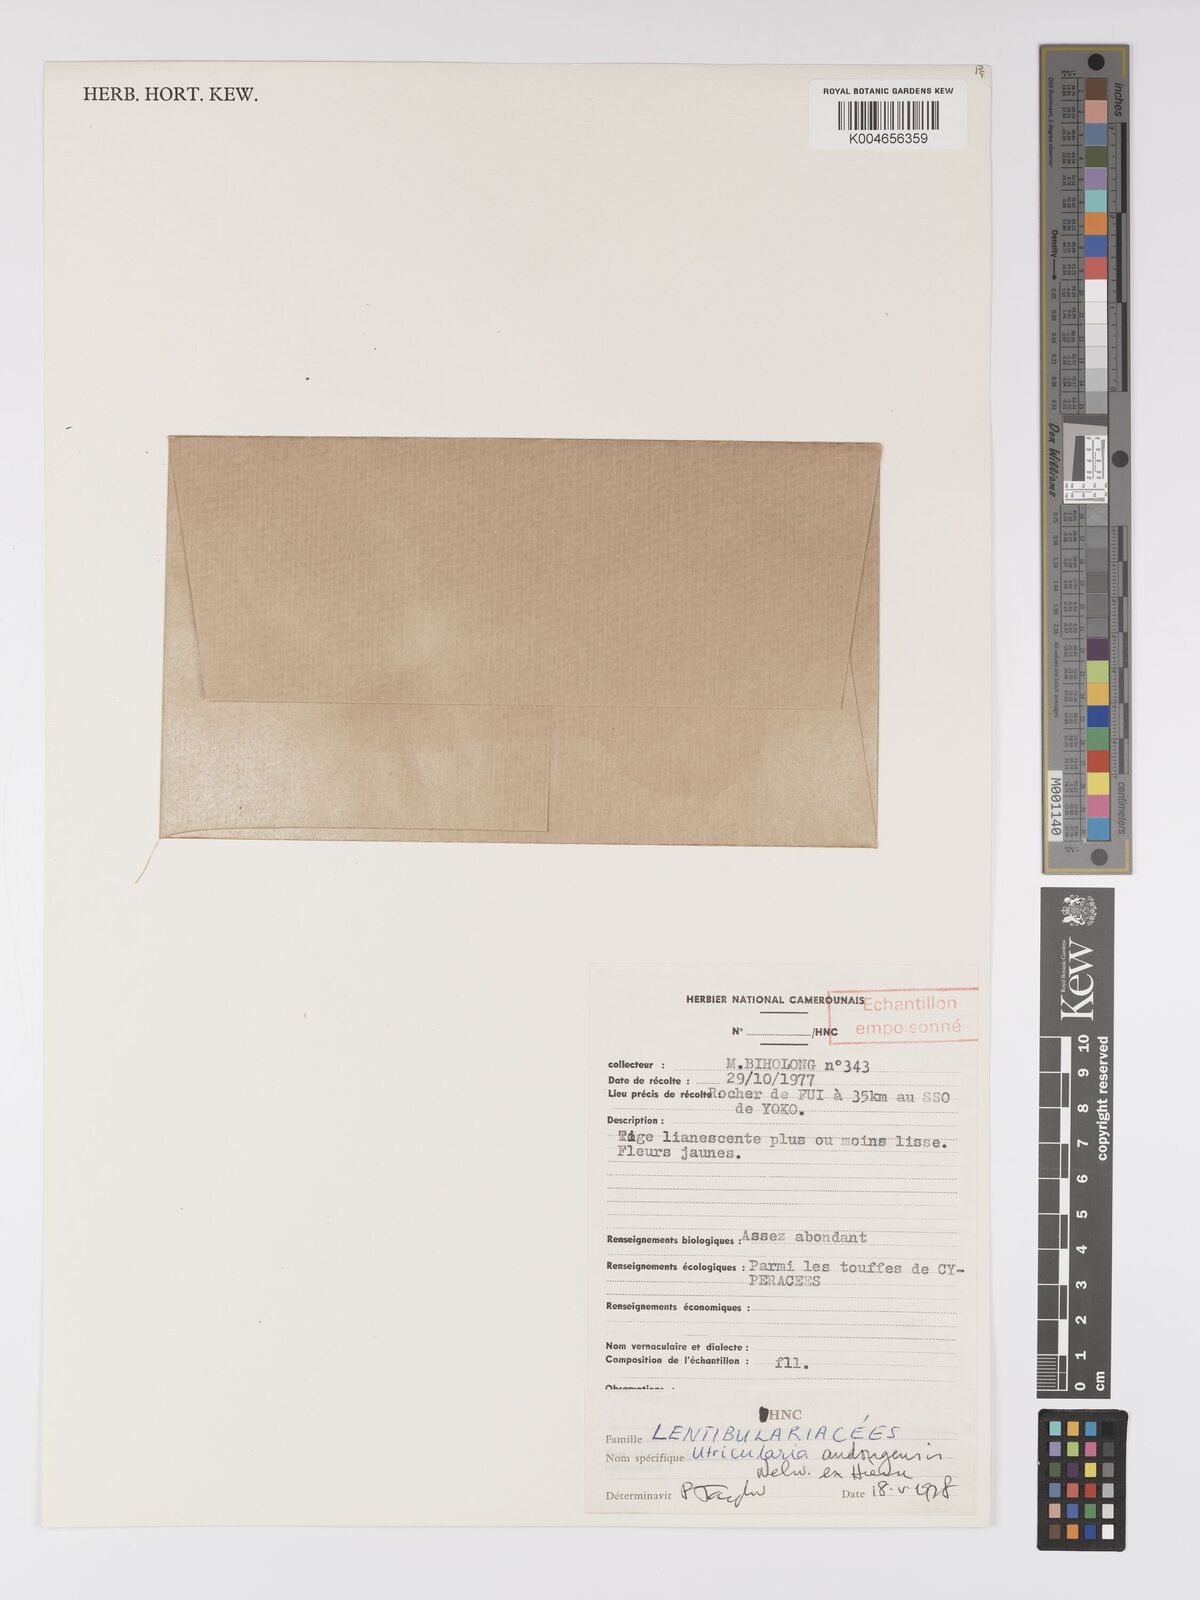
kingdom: Plantae
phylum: Tracheophyta
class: Magnoliopsida
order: Lamiales
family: Lentibulariaceae
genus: Utricularia
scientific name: Utricularia andongensis
